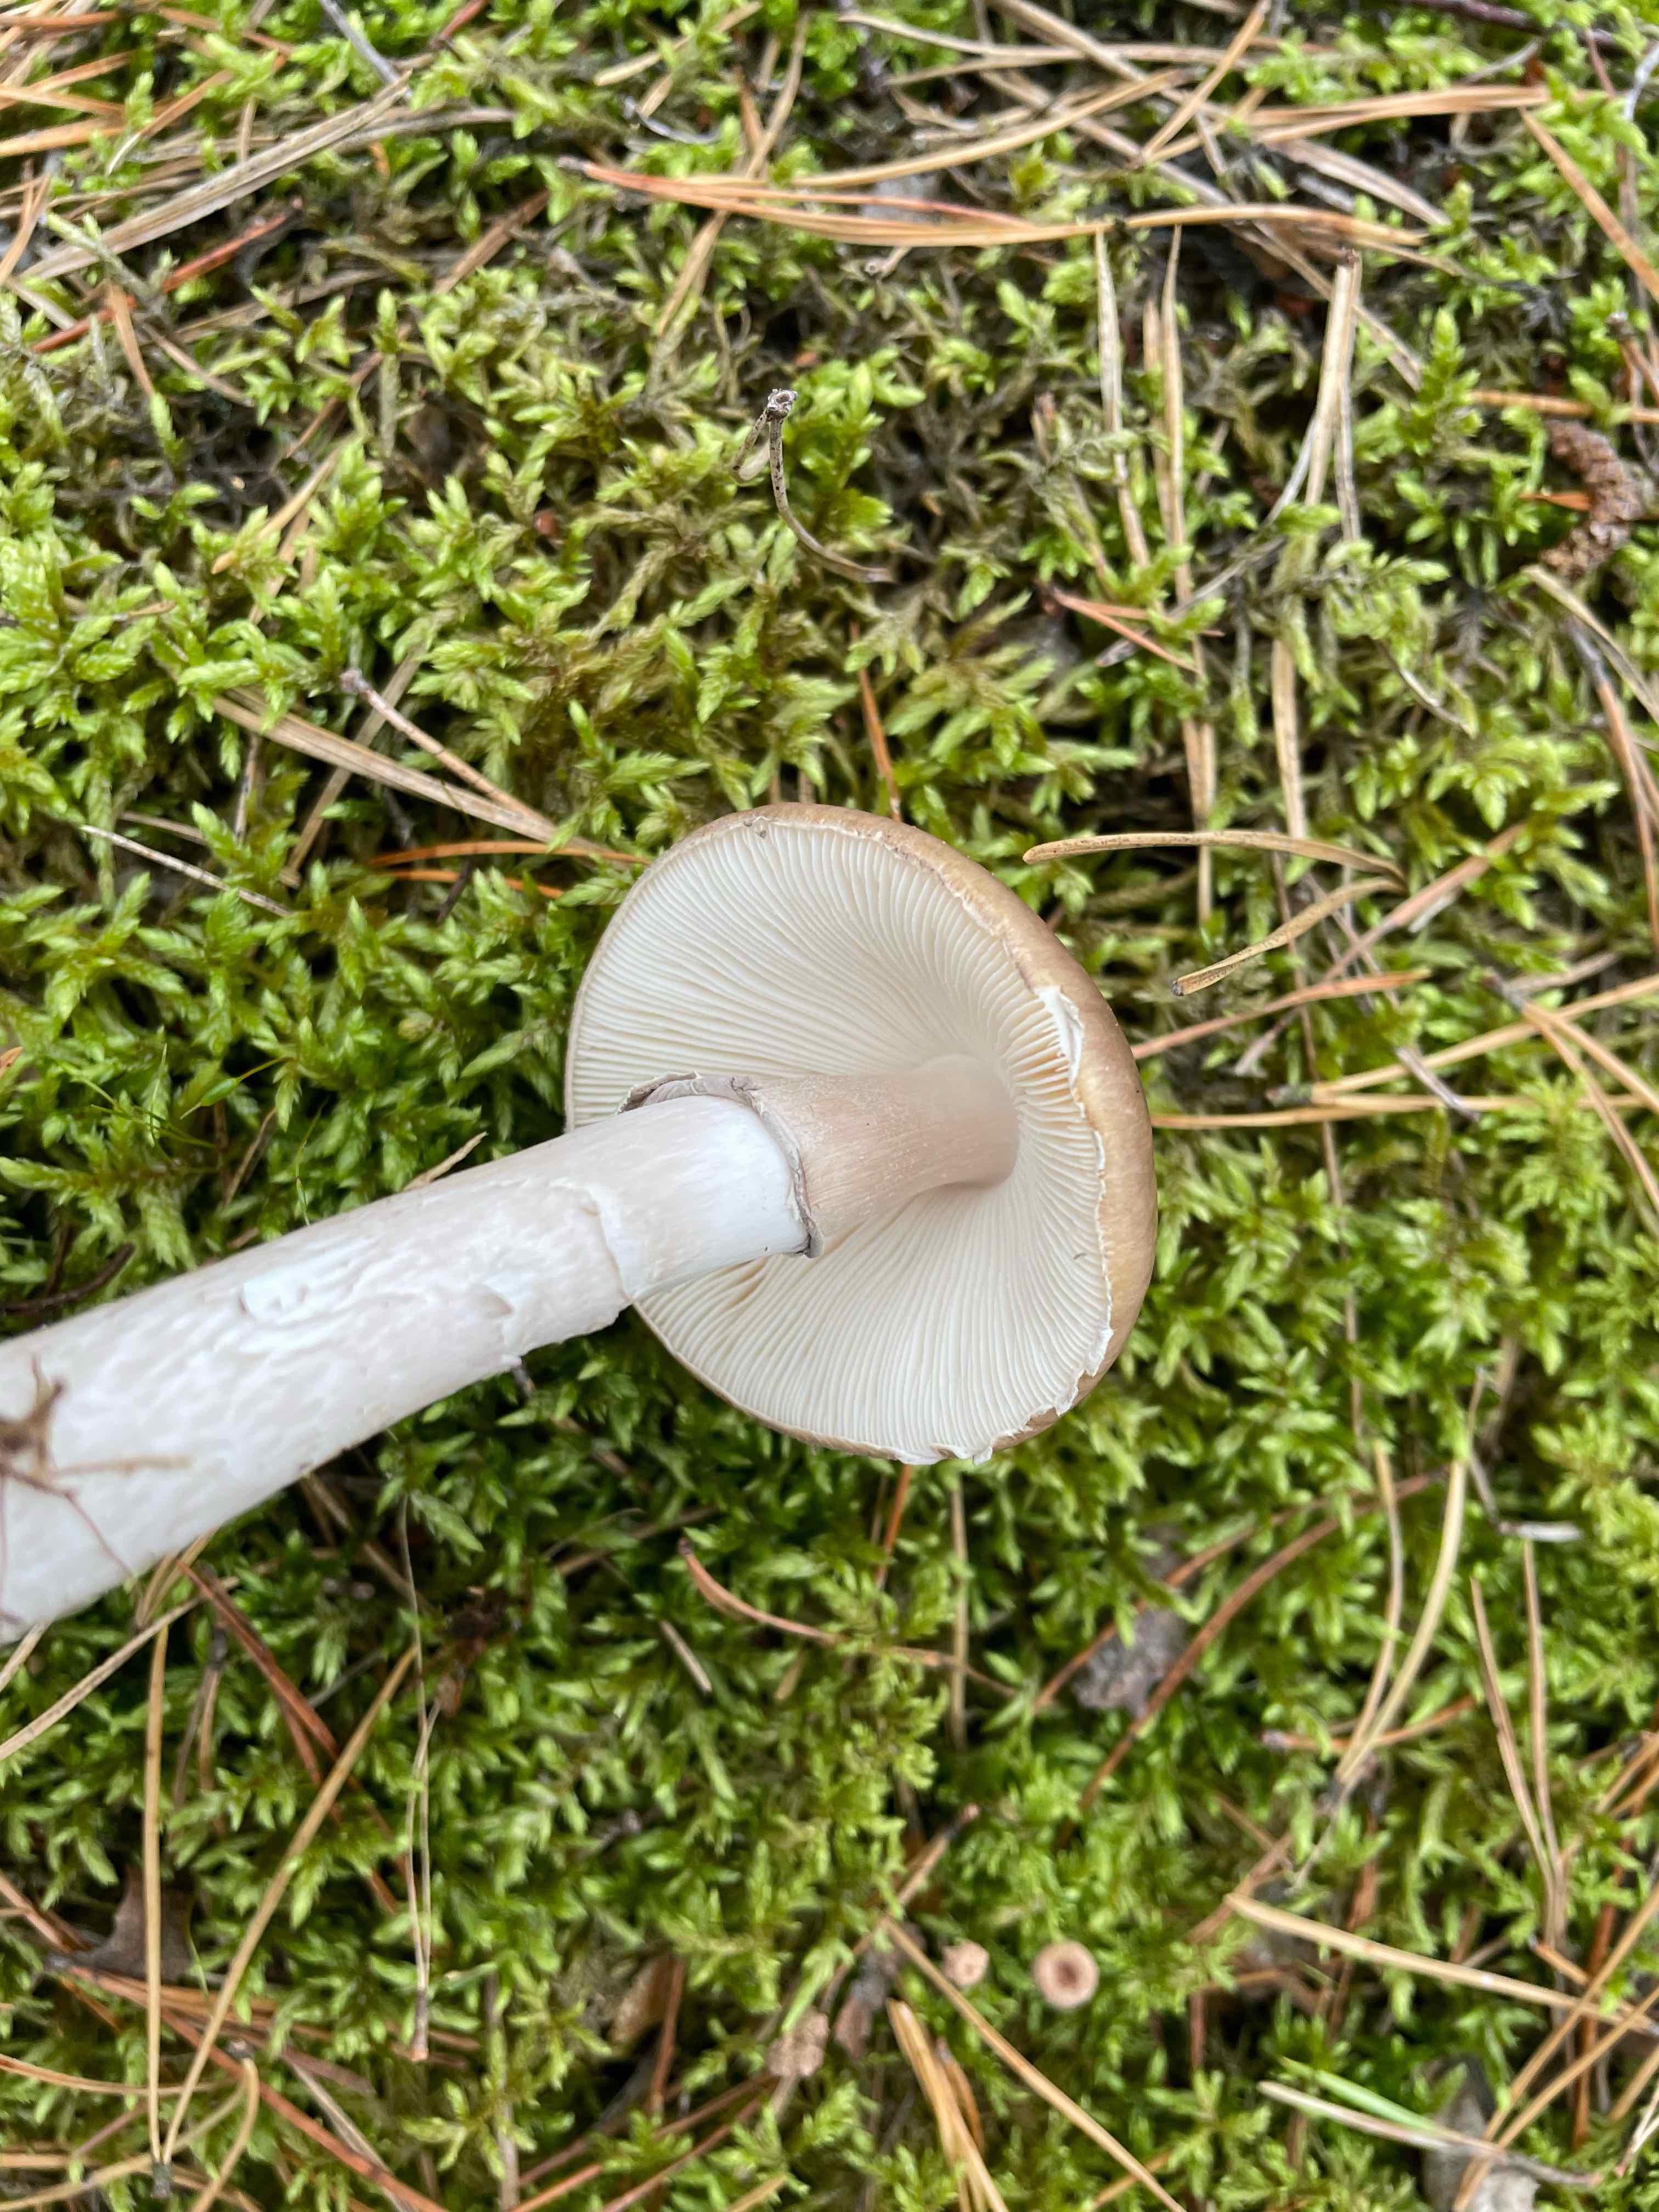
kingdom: Fungi
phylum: Basidiomycota
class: Agaricomycetes
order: Agaricales
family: Amanitaceae
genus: Amanita
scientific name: Amanita porphyria
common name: porfyr-fluesvamp
